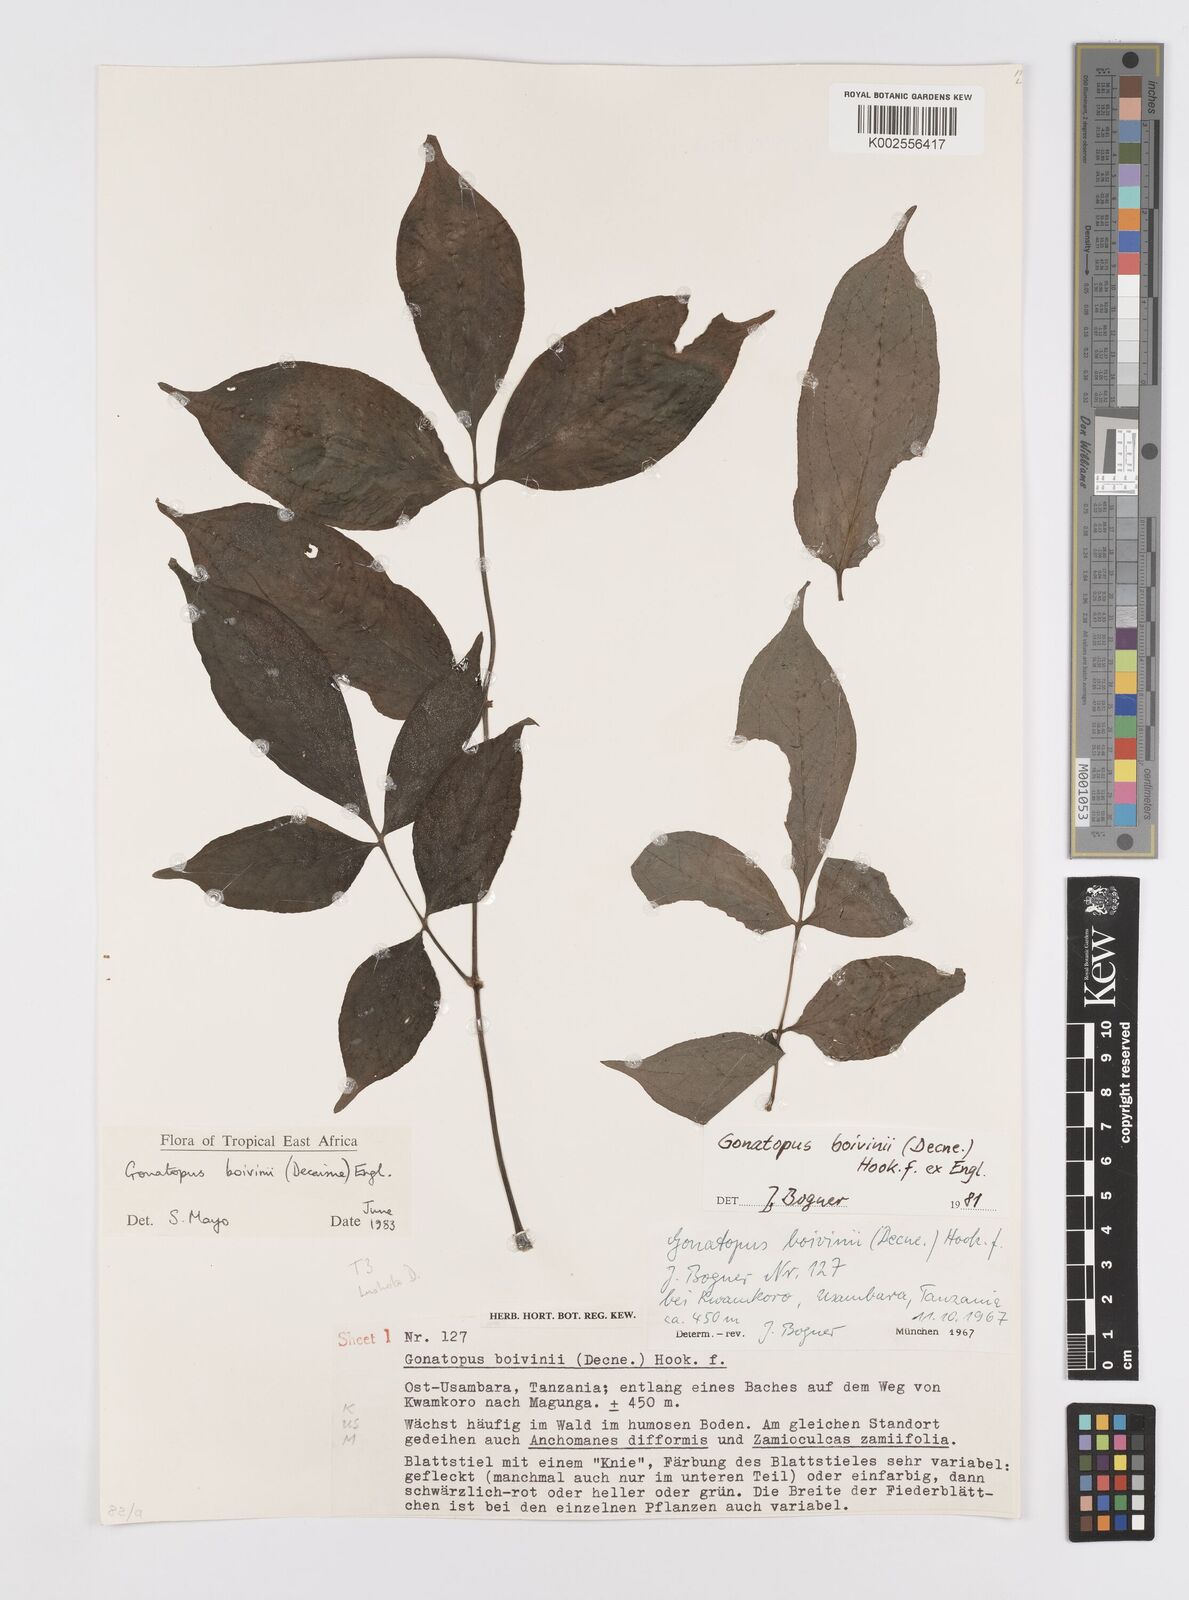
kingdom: Plantae
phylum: Tracheophyta
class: Liliopsida
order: Alismatales
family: Araceae
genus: Gonatopus
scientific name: Gonatopus boivinii
